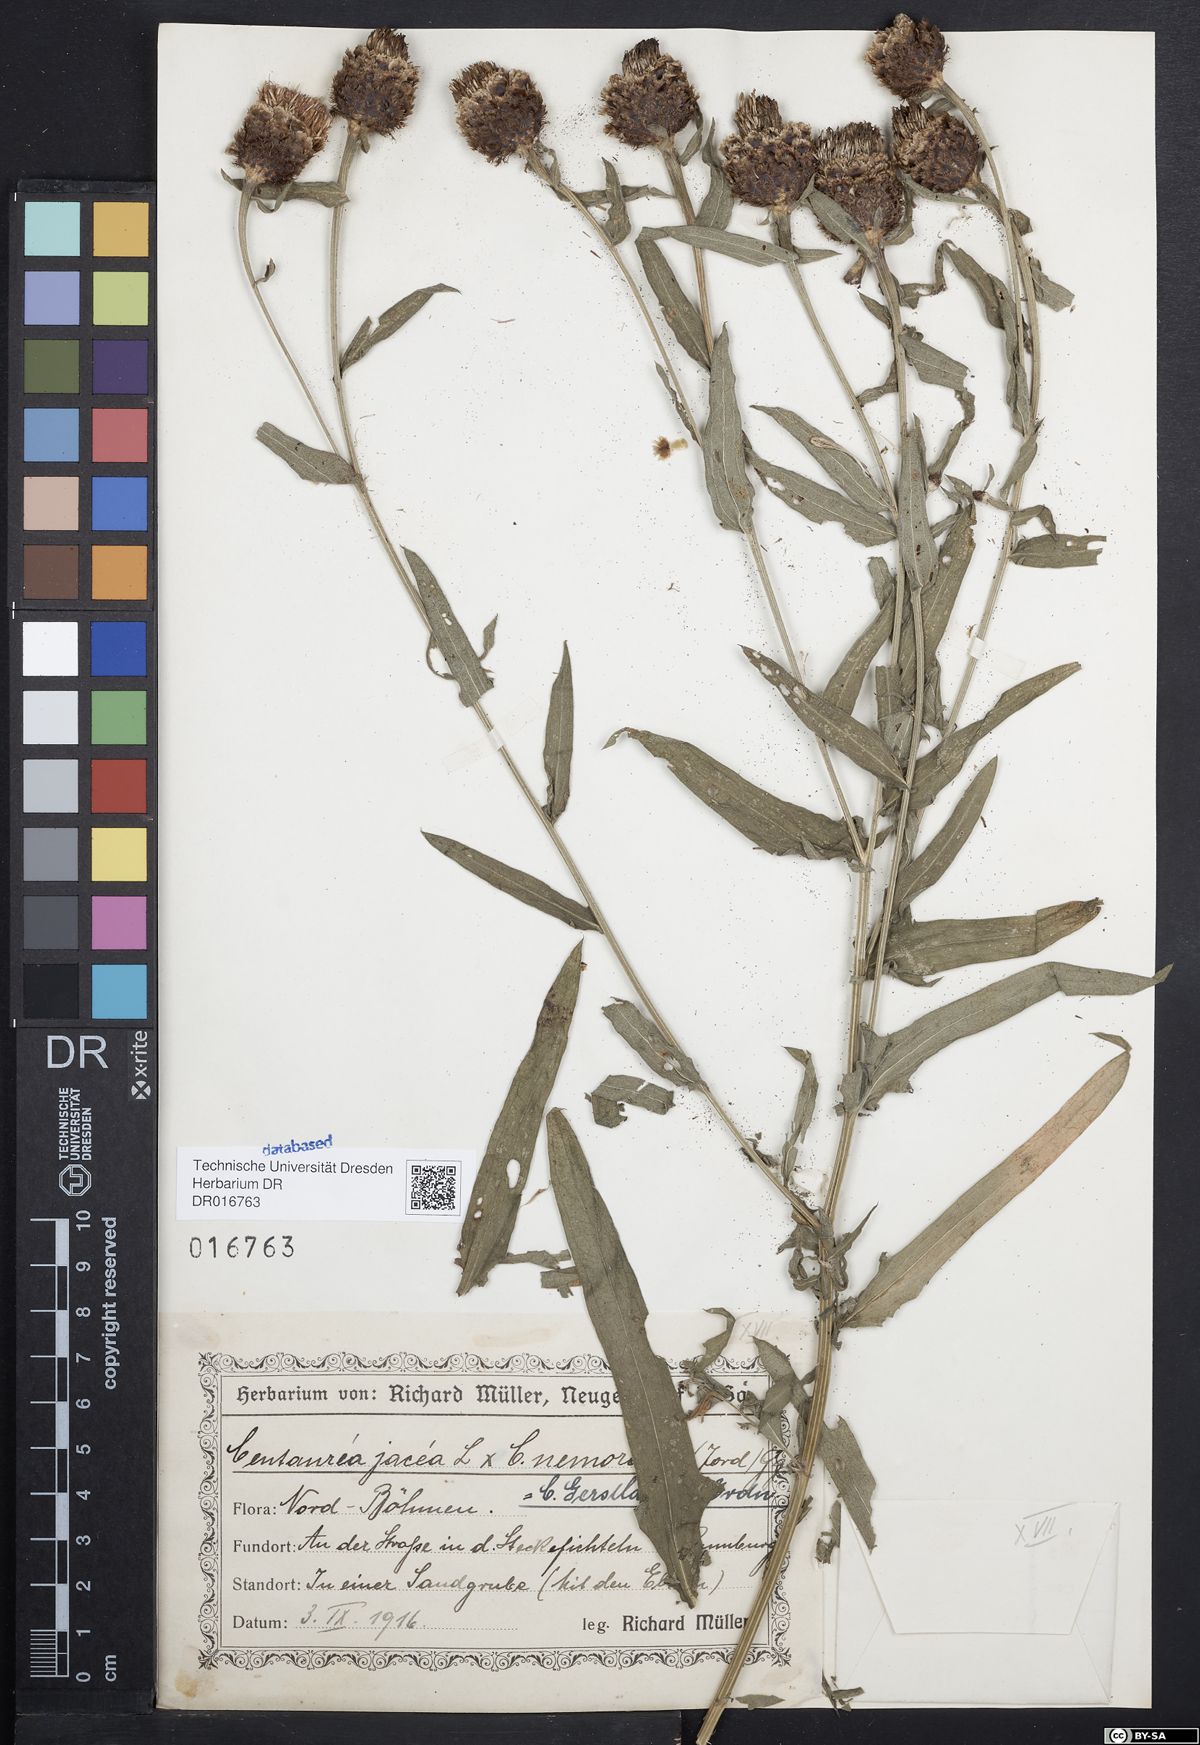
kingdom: Plantae
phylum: Tracheophyta
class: Magnoliopsida
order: Asterales
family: Asteraceae
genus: Centaurea
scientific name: Centaurea jacea
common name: Brown knapweed
